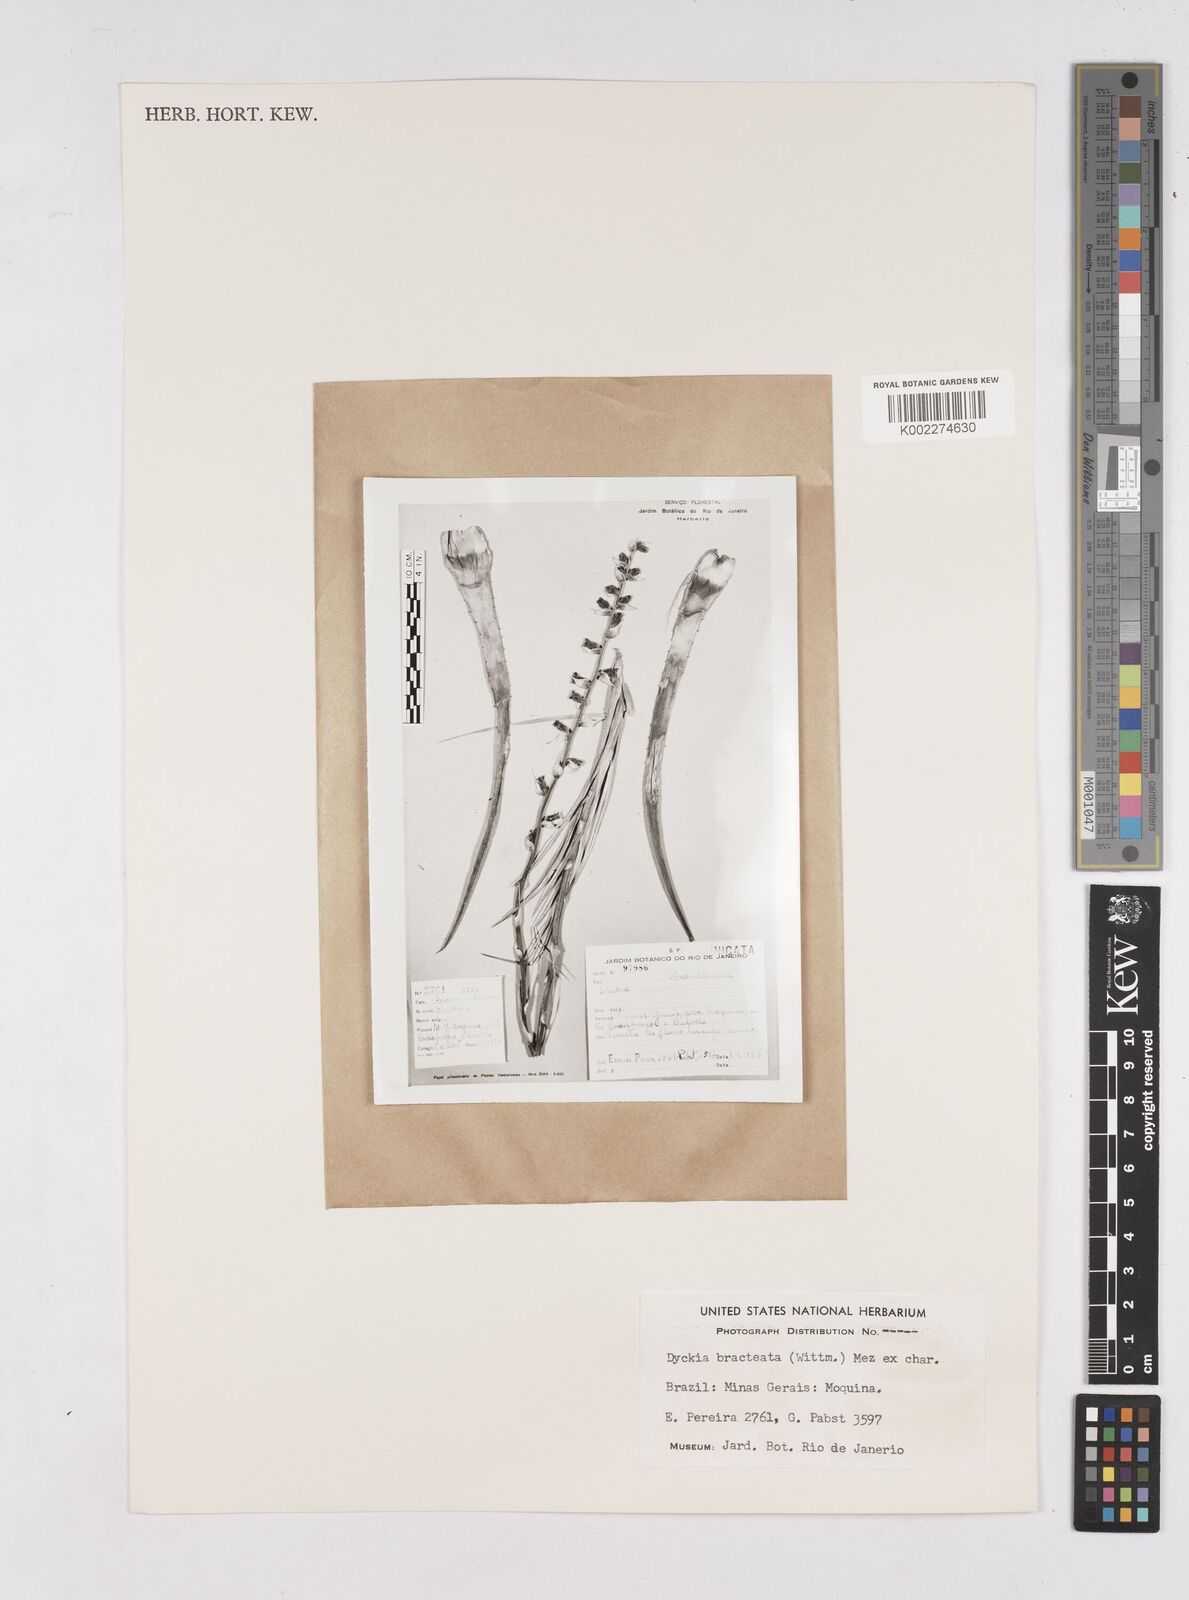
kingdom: Plantae
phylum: Tracheophyta
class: Liliopsida
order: Poales
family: Bromeliaceae
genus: Dyckia
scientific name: Dyckia bracteata
